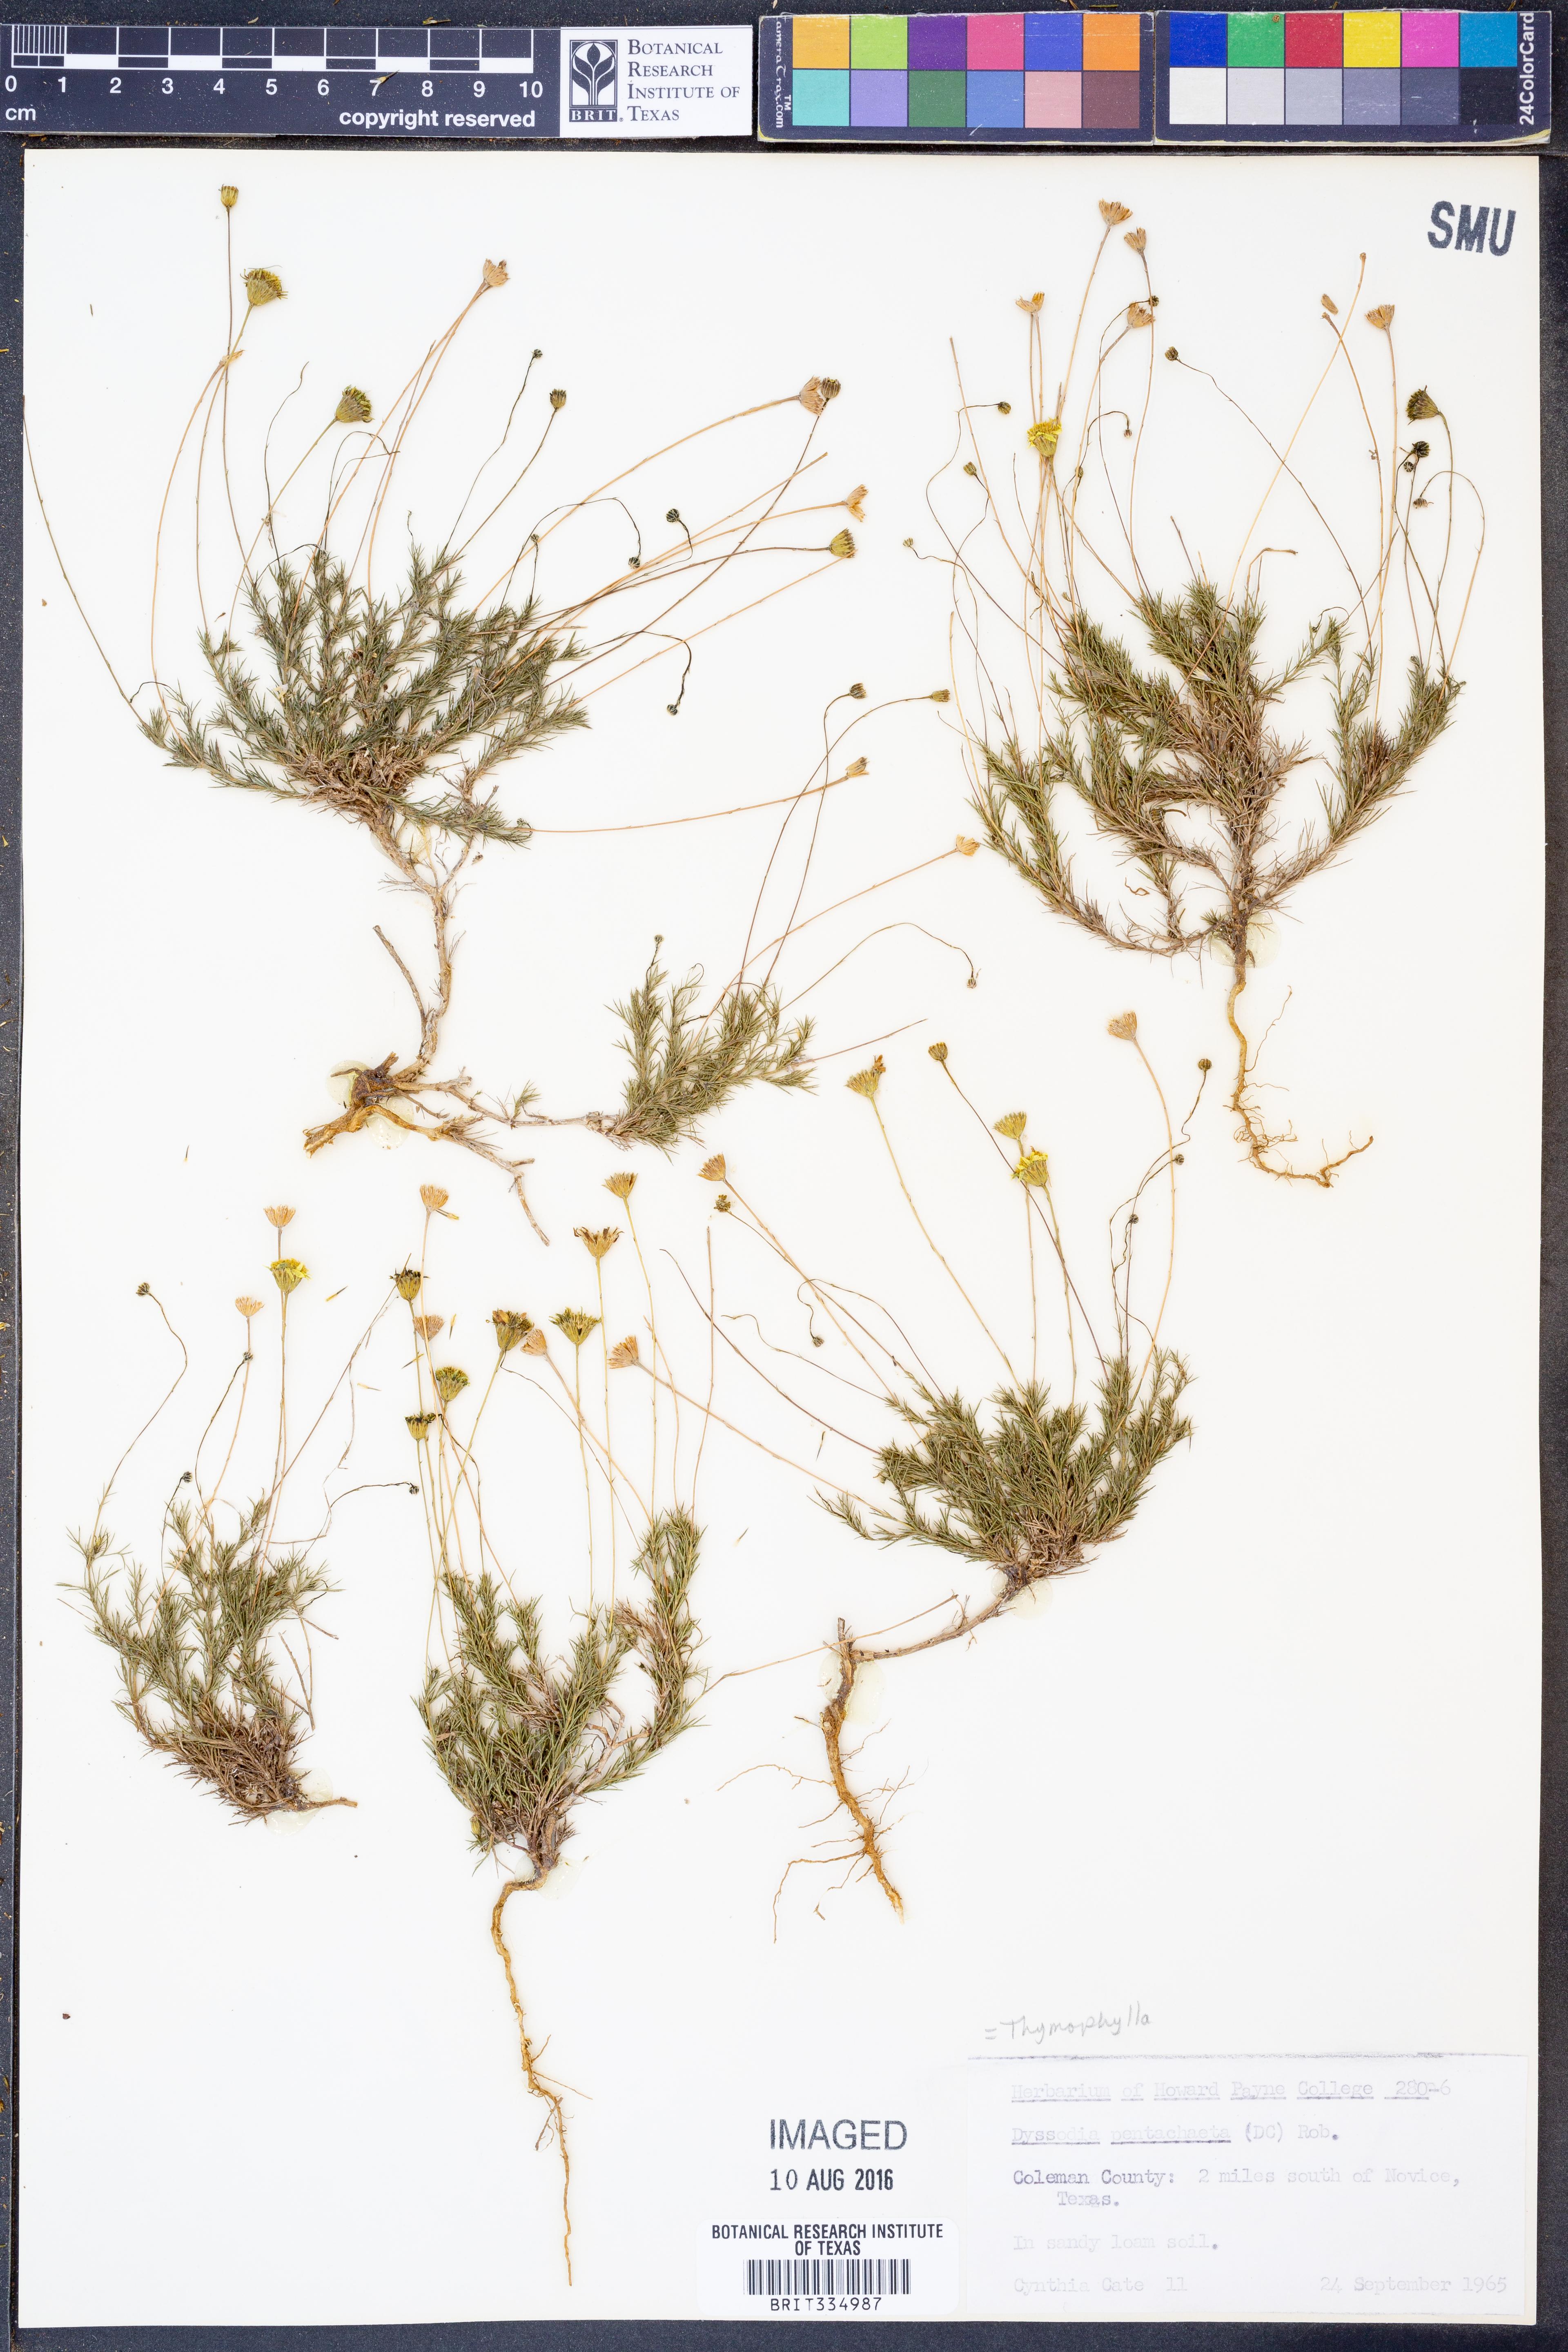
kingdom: Plantae
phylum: Tracheophyta
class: Magnoliopsida
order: Asterales
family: Asteraceae
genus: Thymophylla
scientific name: Thymophylla pentachaeta
